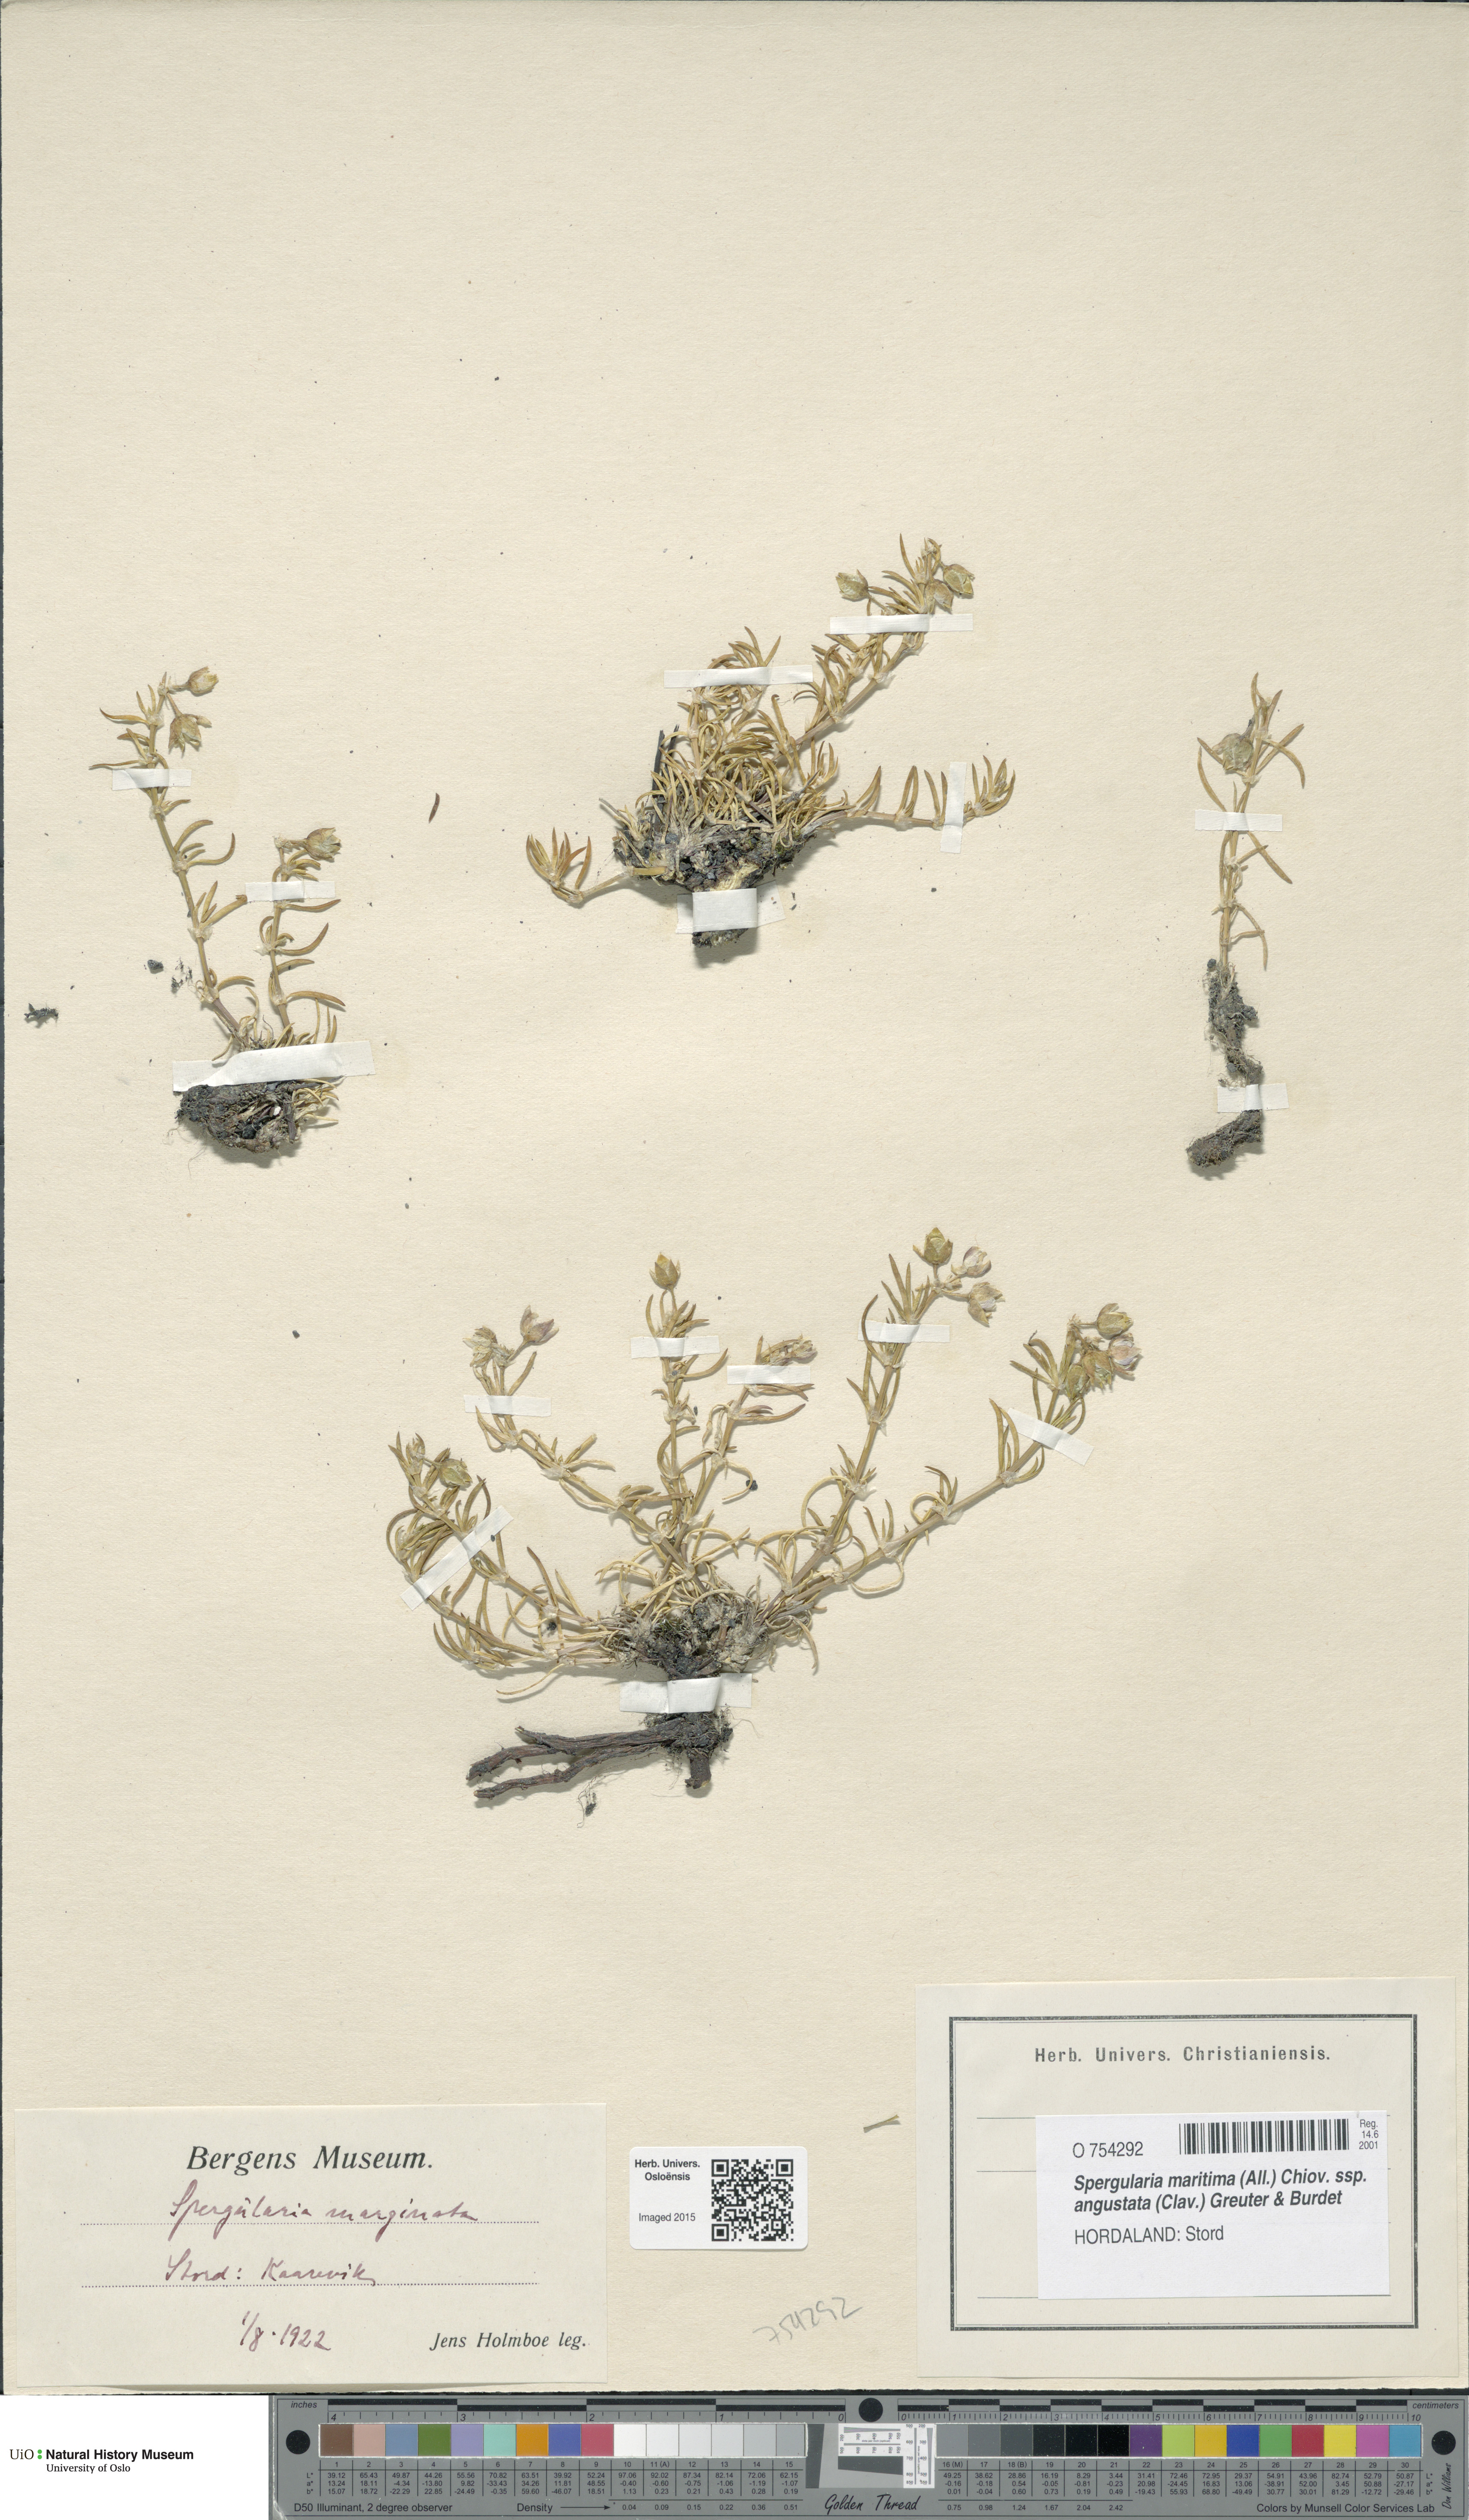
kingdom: Plantae
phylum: Tracheophyta
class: Magnoliopsida
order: Caryophyllales
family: Caryophyllaceae
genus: Spergularia
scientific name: Spergularia media
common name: Greater sea-spurrey
